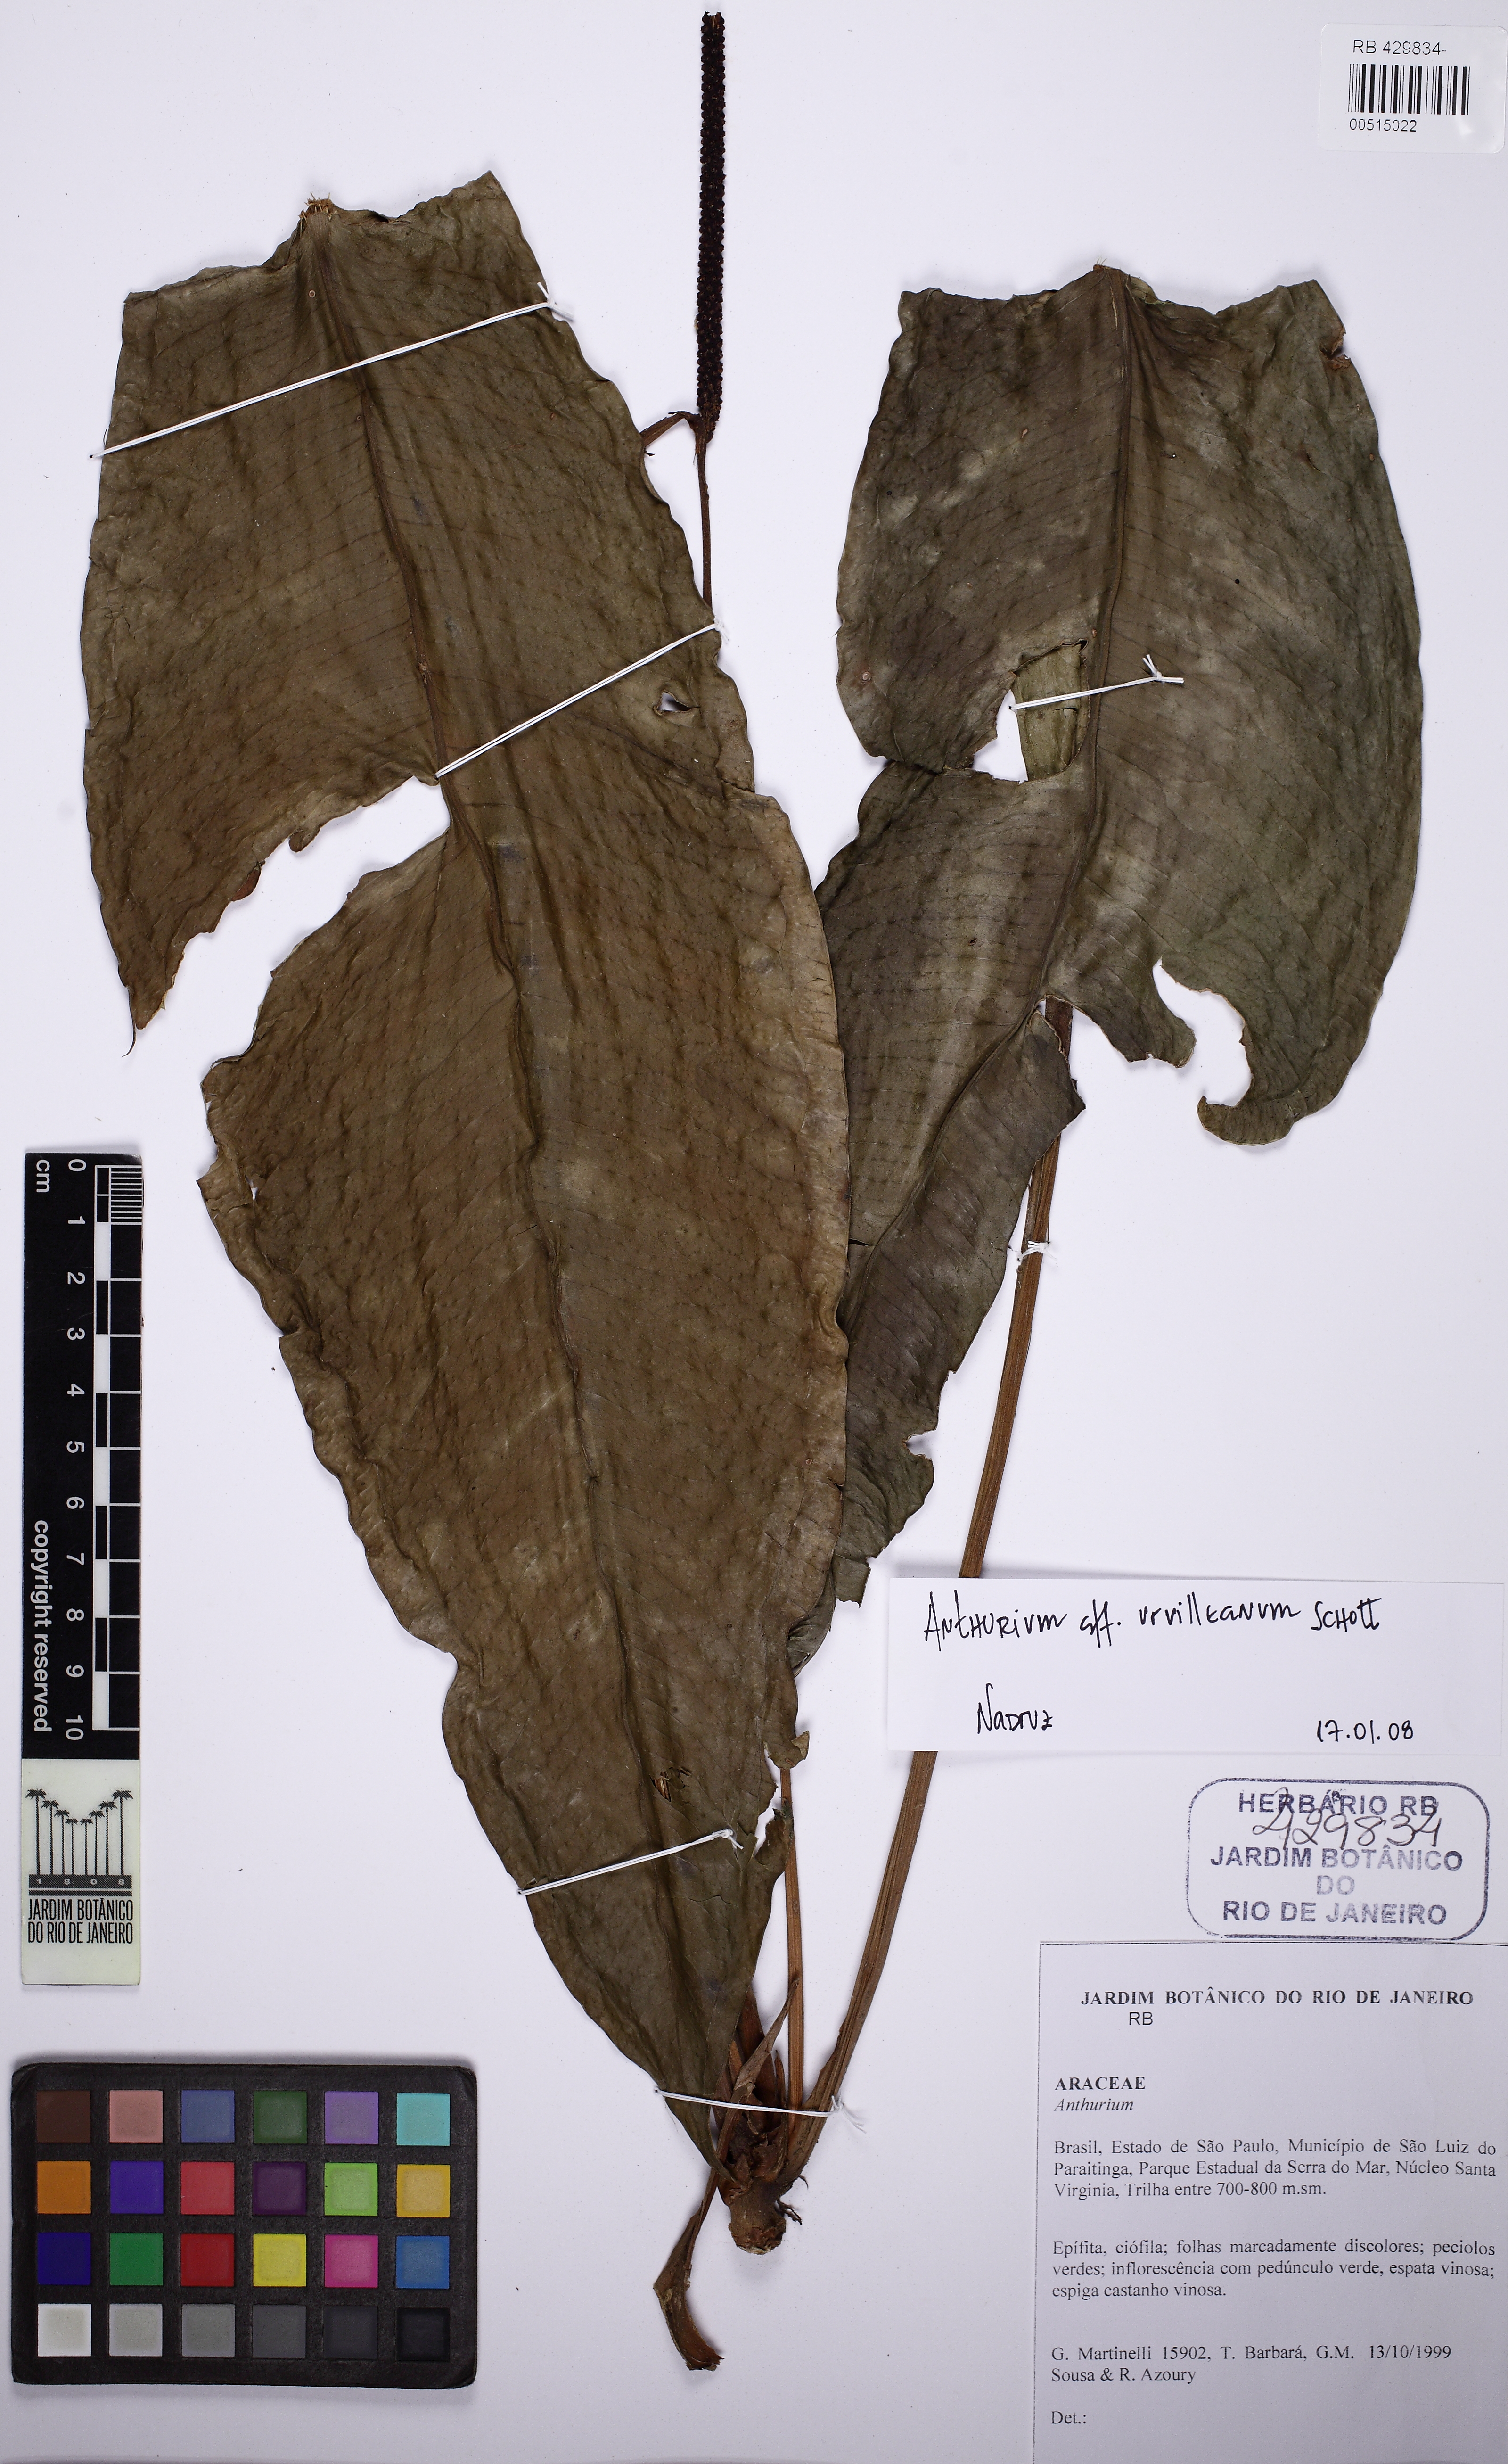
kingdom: Plantae
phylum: Tracheophyta
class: Liliopsida
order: Alismatales
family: Araceae
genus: Anthurium
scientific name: Anthurium urvilleanum
